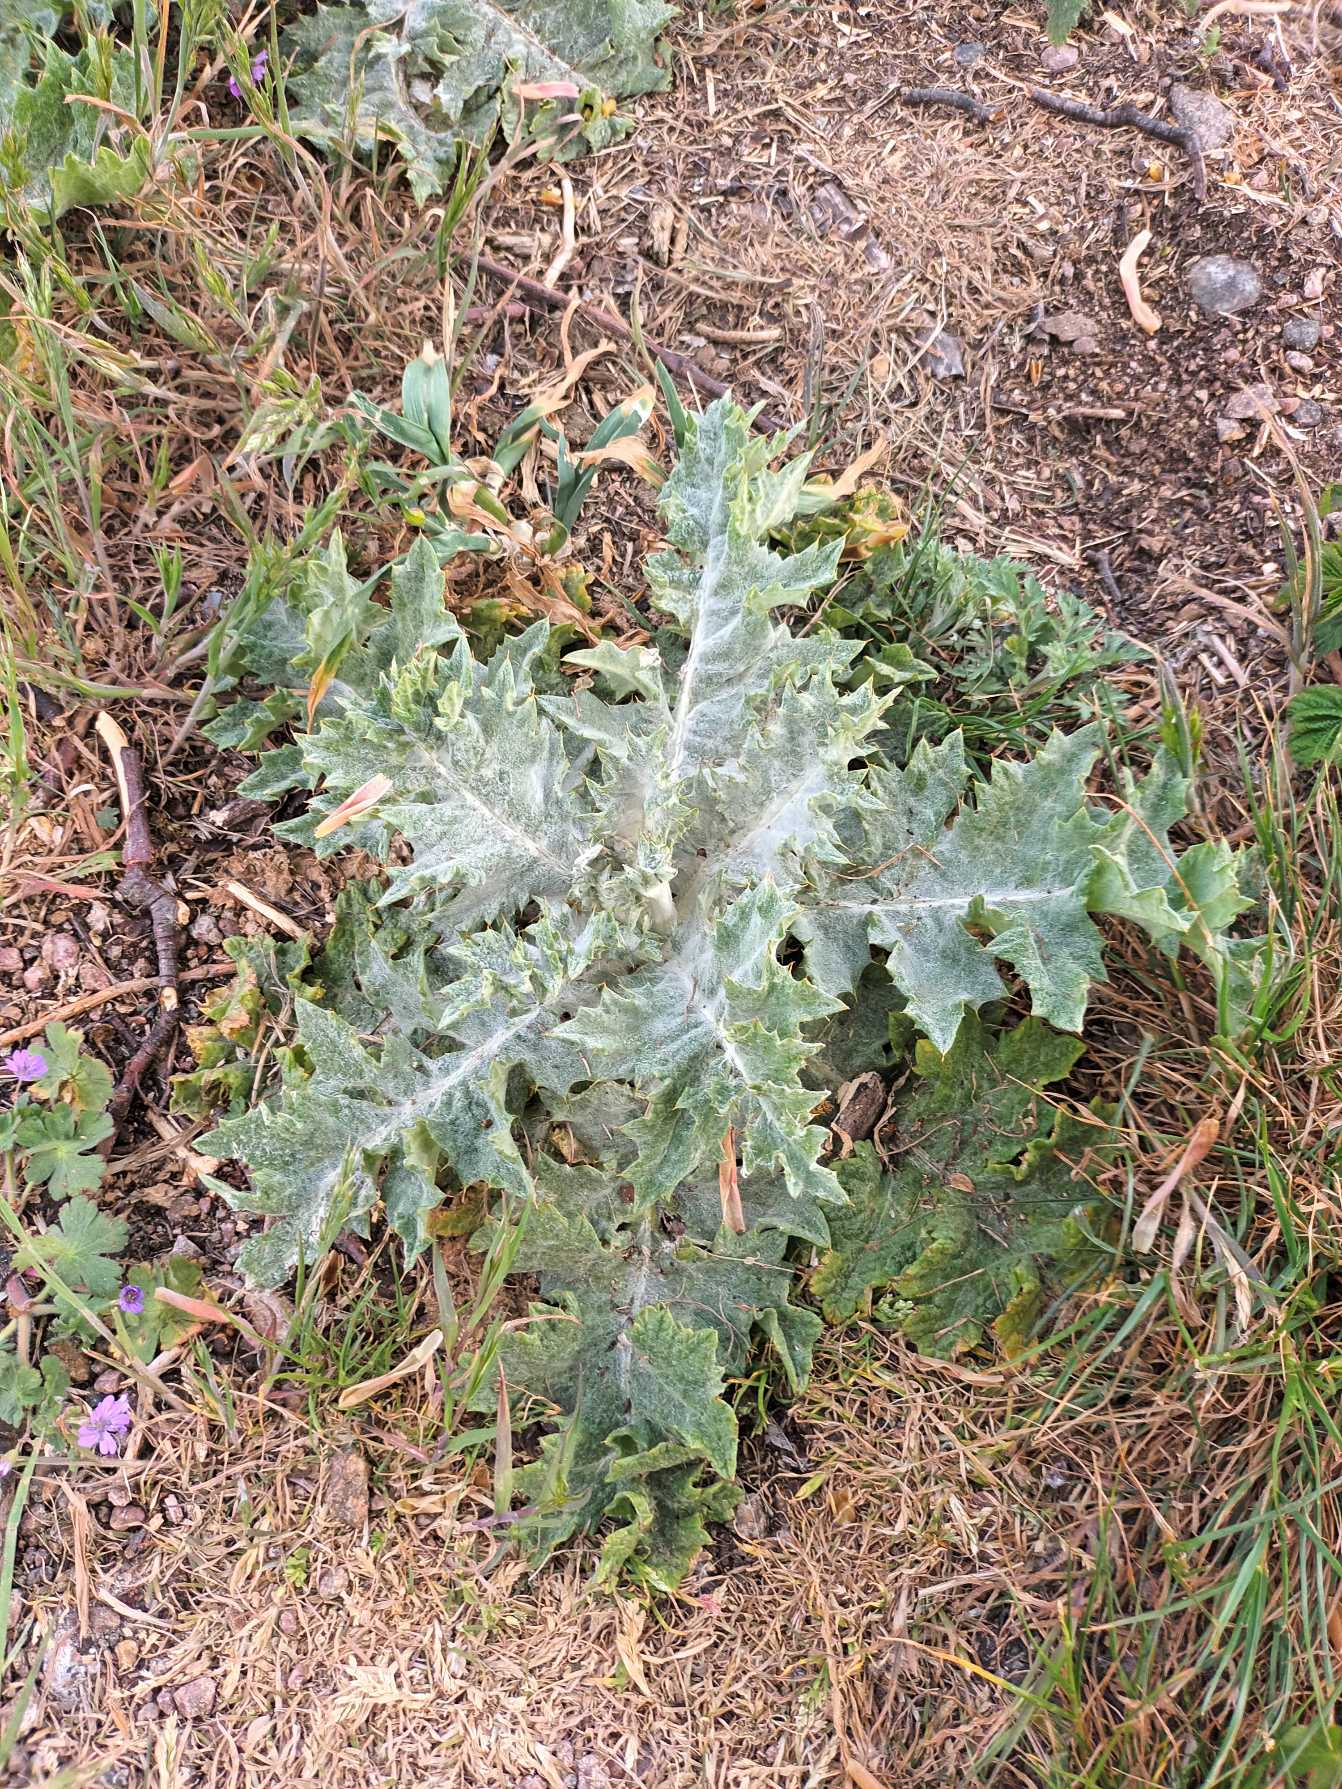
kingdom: Plantae
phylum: Tracheophyta
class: Magnoliopsida
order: Asterales
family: Asteraceae
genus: Onopordum
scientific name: Onopordum acanthium
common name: Æselfoder
